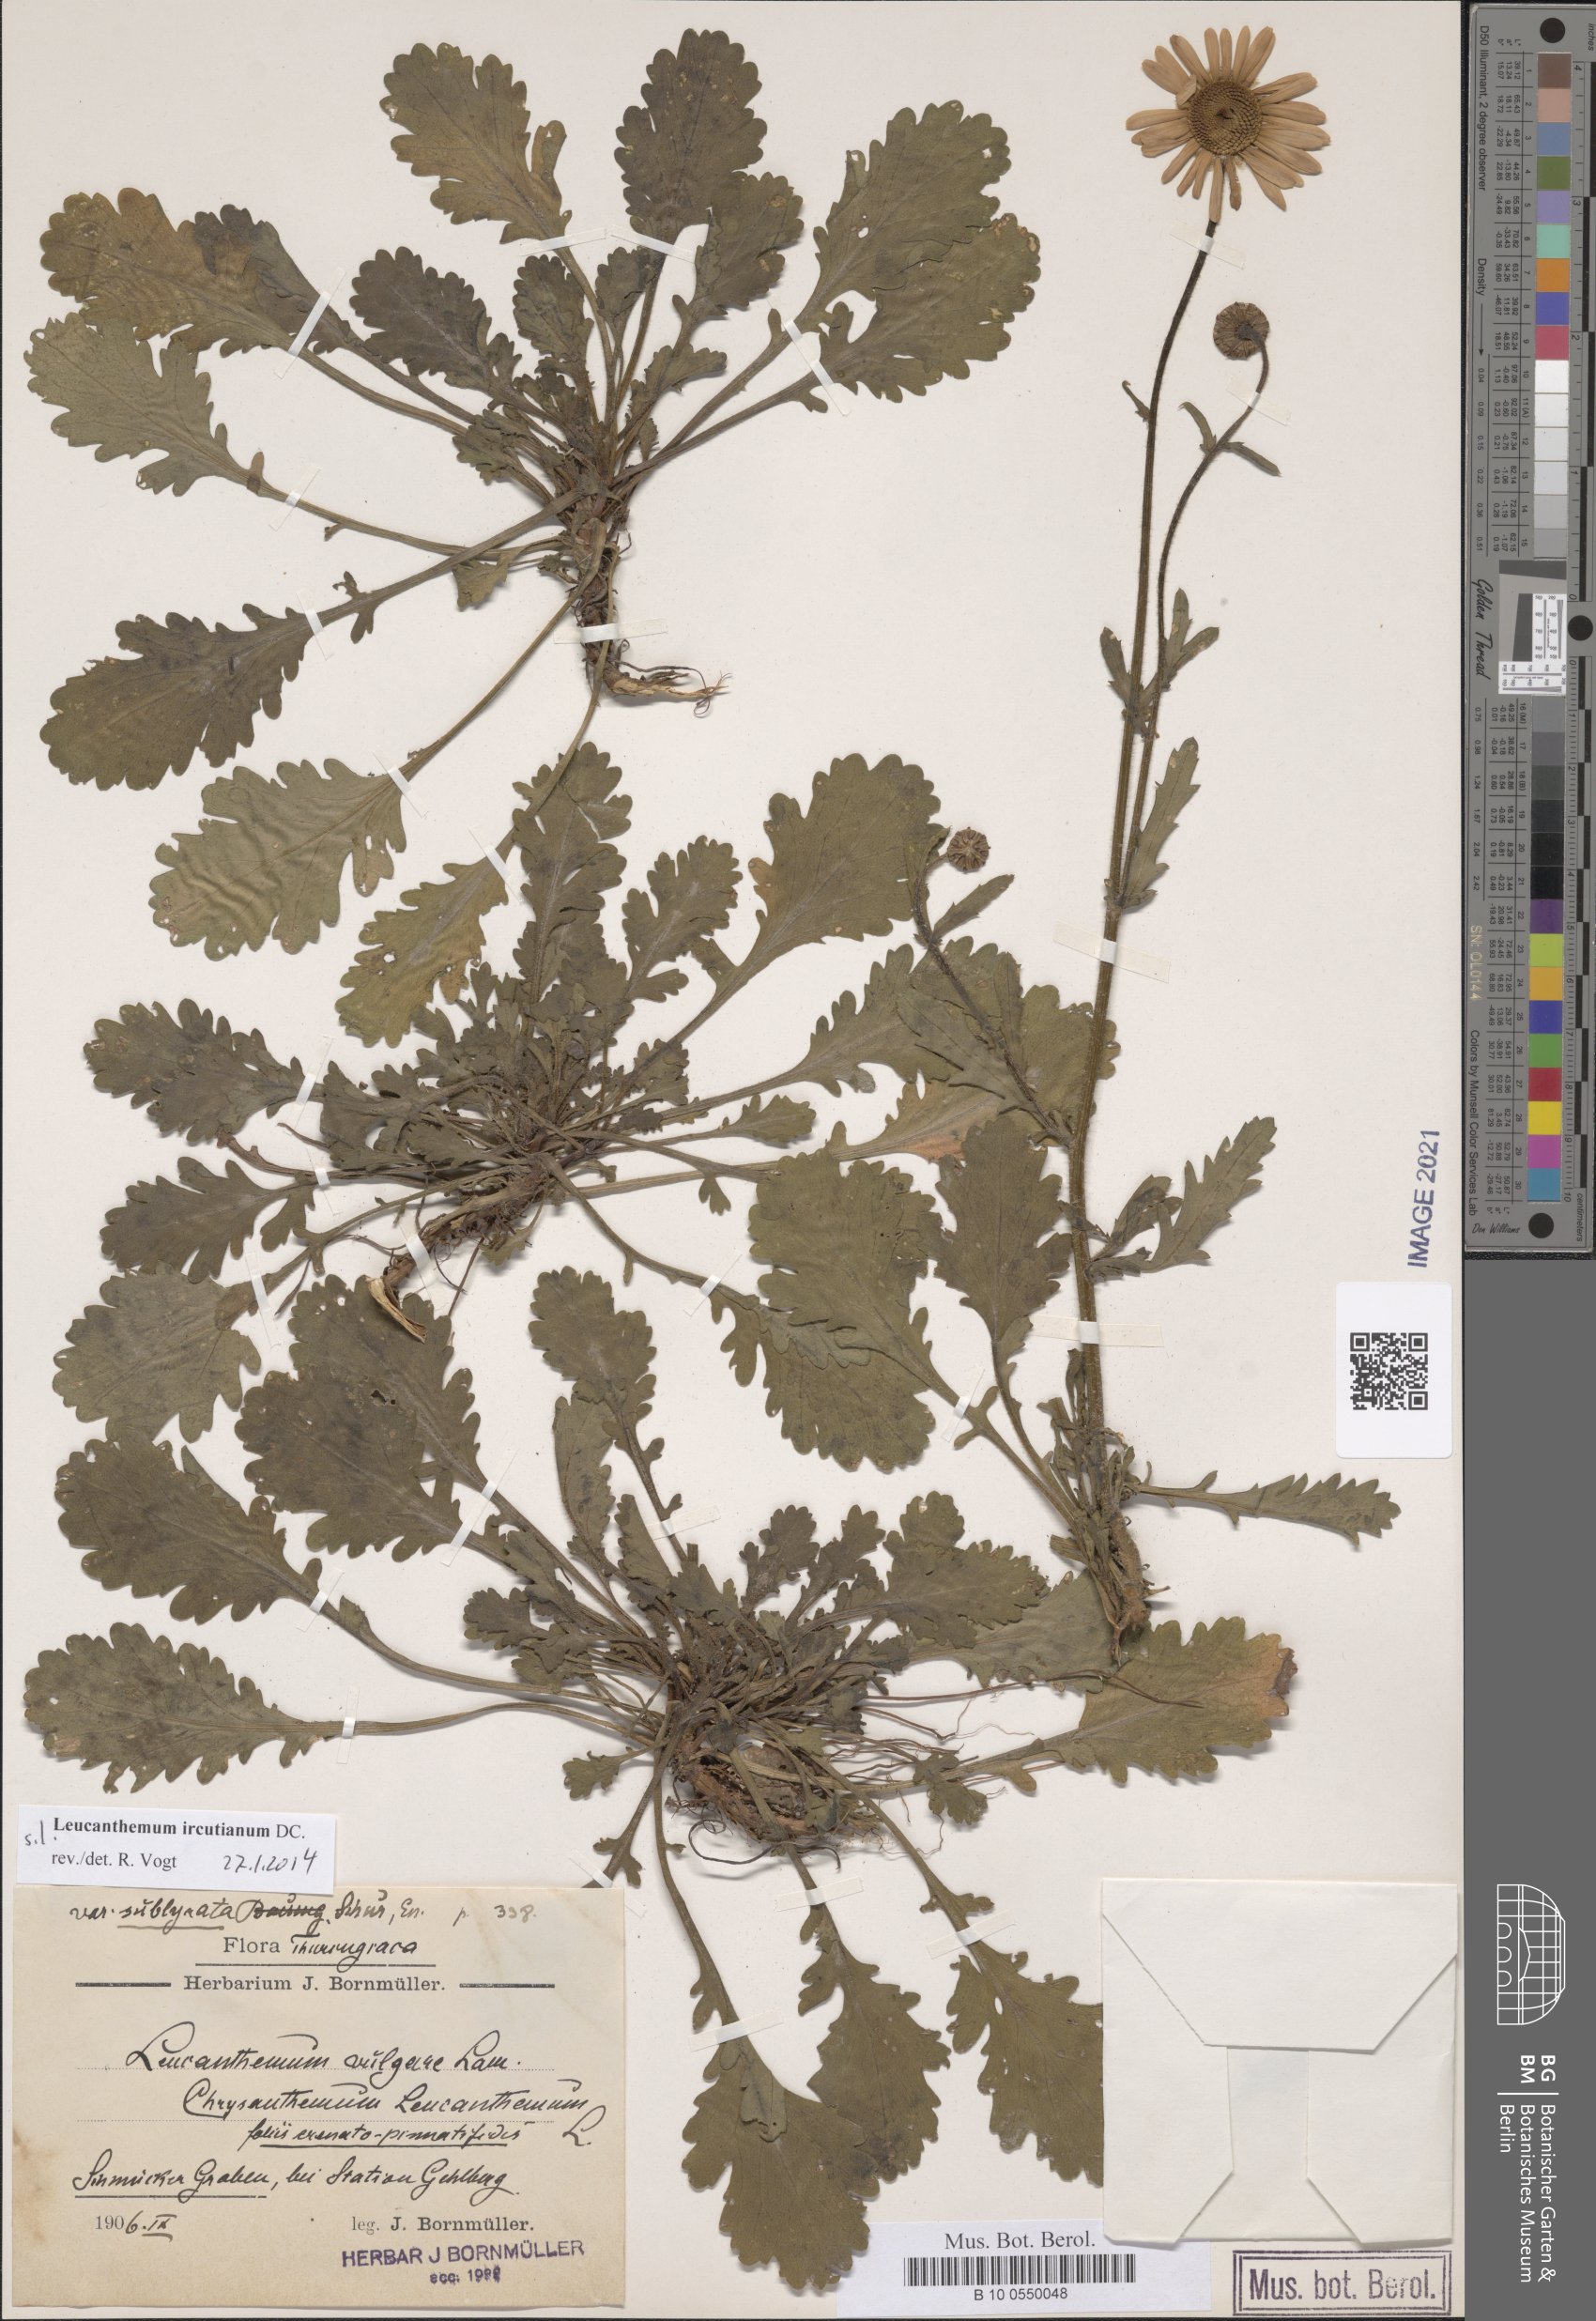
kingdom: Plantae
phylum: Tracheophyta
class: Magnoliopsida
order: Asterales
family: Asteraceae
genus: Leucanthemum
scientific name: Leucanthemum ircutianum
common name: Daisy
